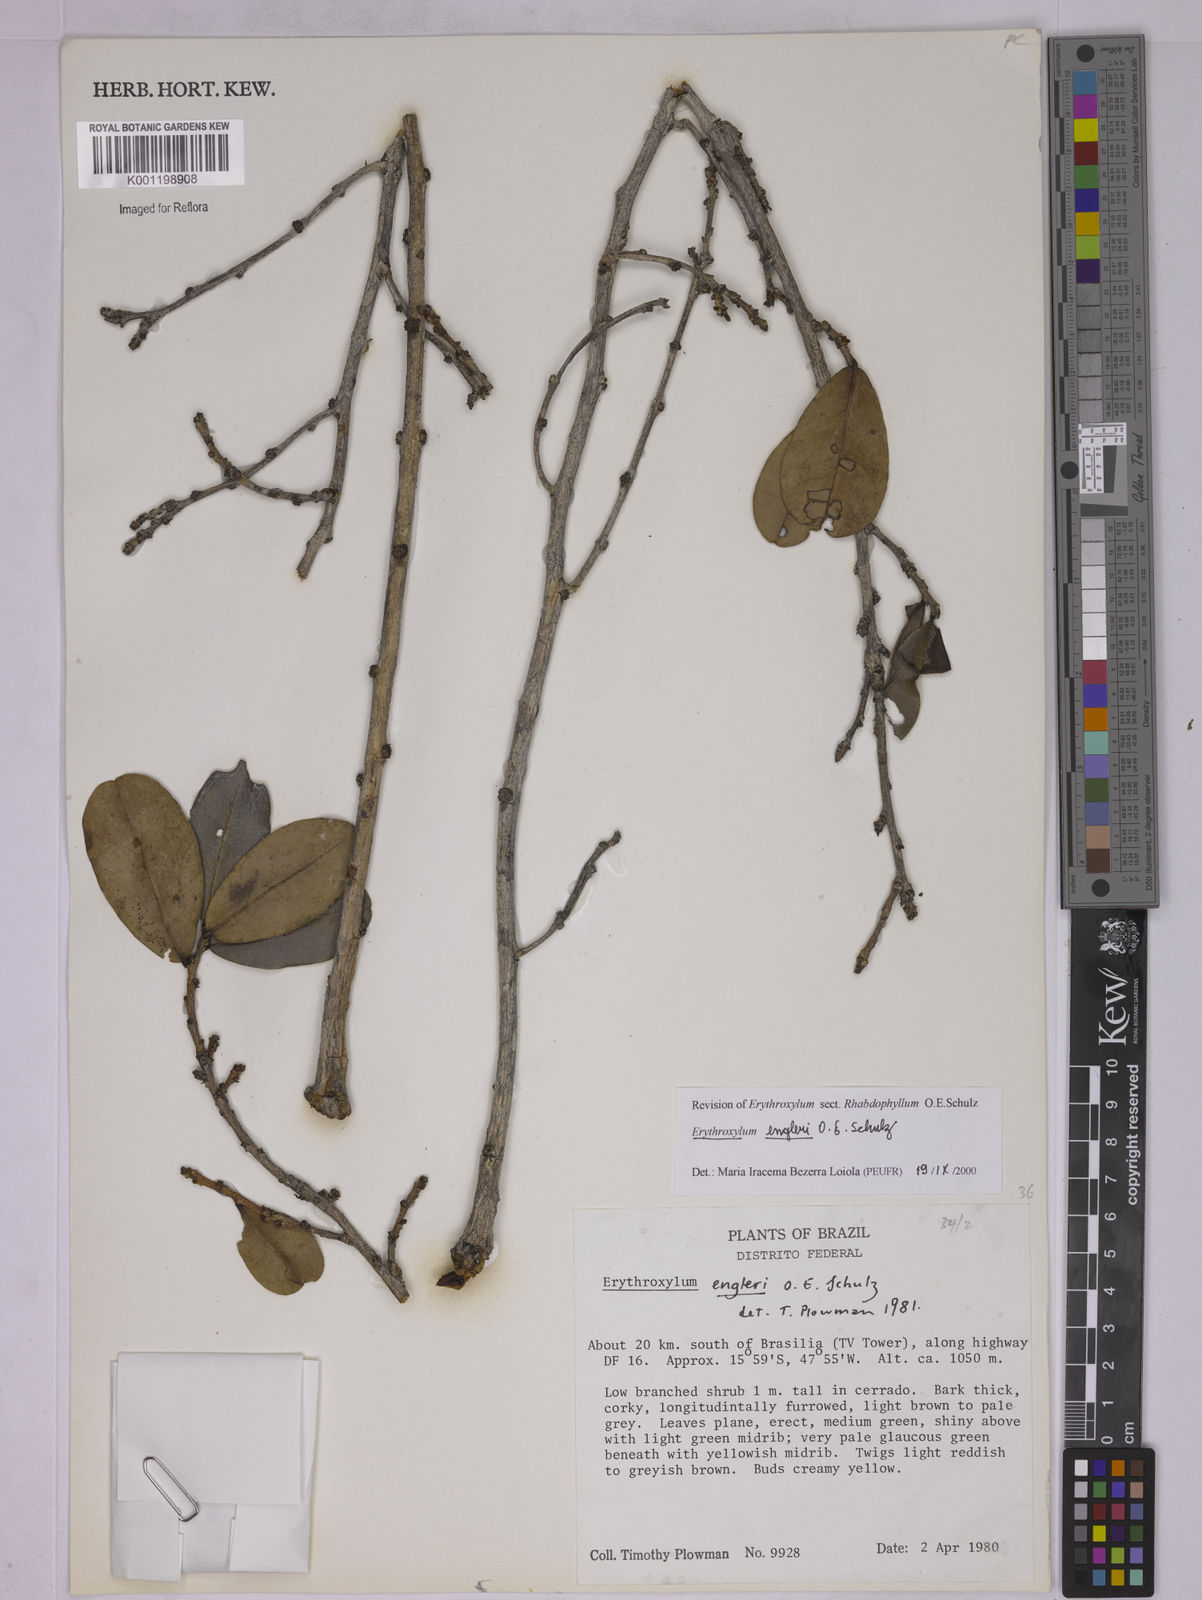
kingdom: Plantae
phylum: Tracheophyta
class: Magnoliopsida
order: Malpighiales
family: Erythroxylaceae
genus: Erythroxylum
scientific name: Erythroxylum engleri
